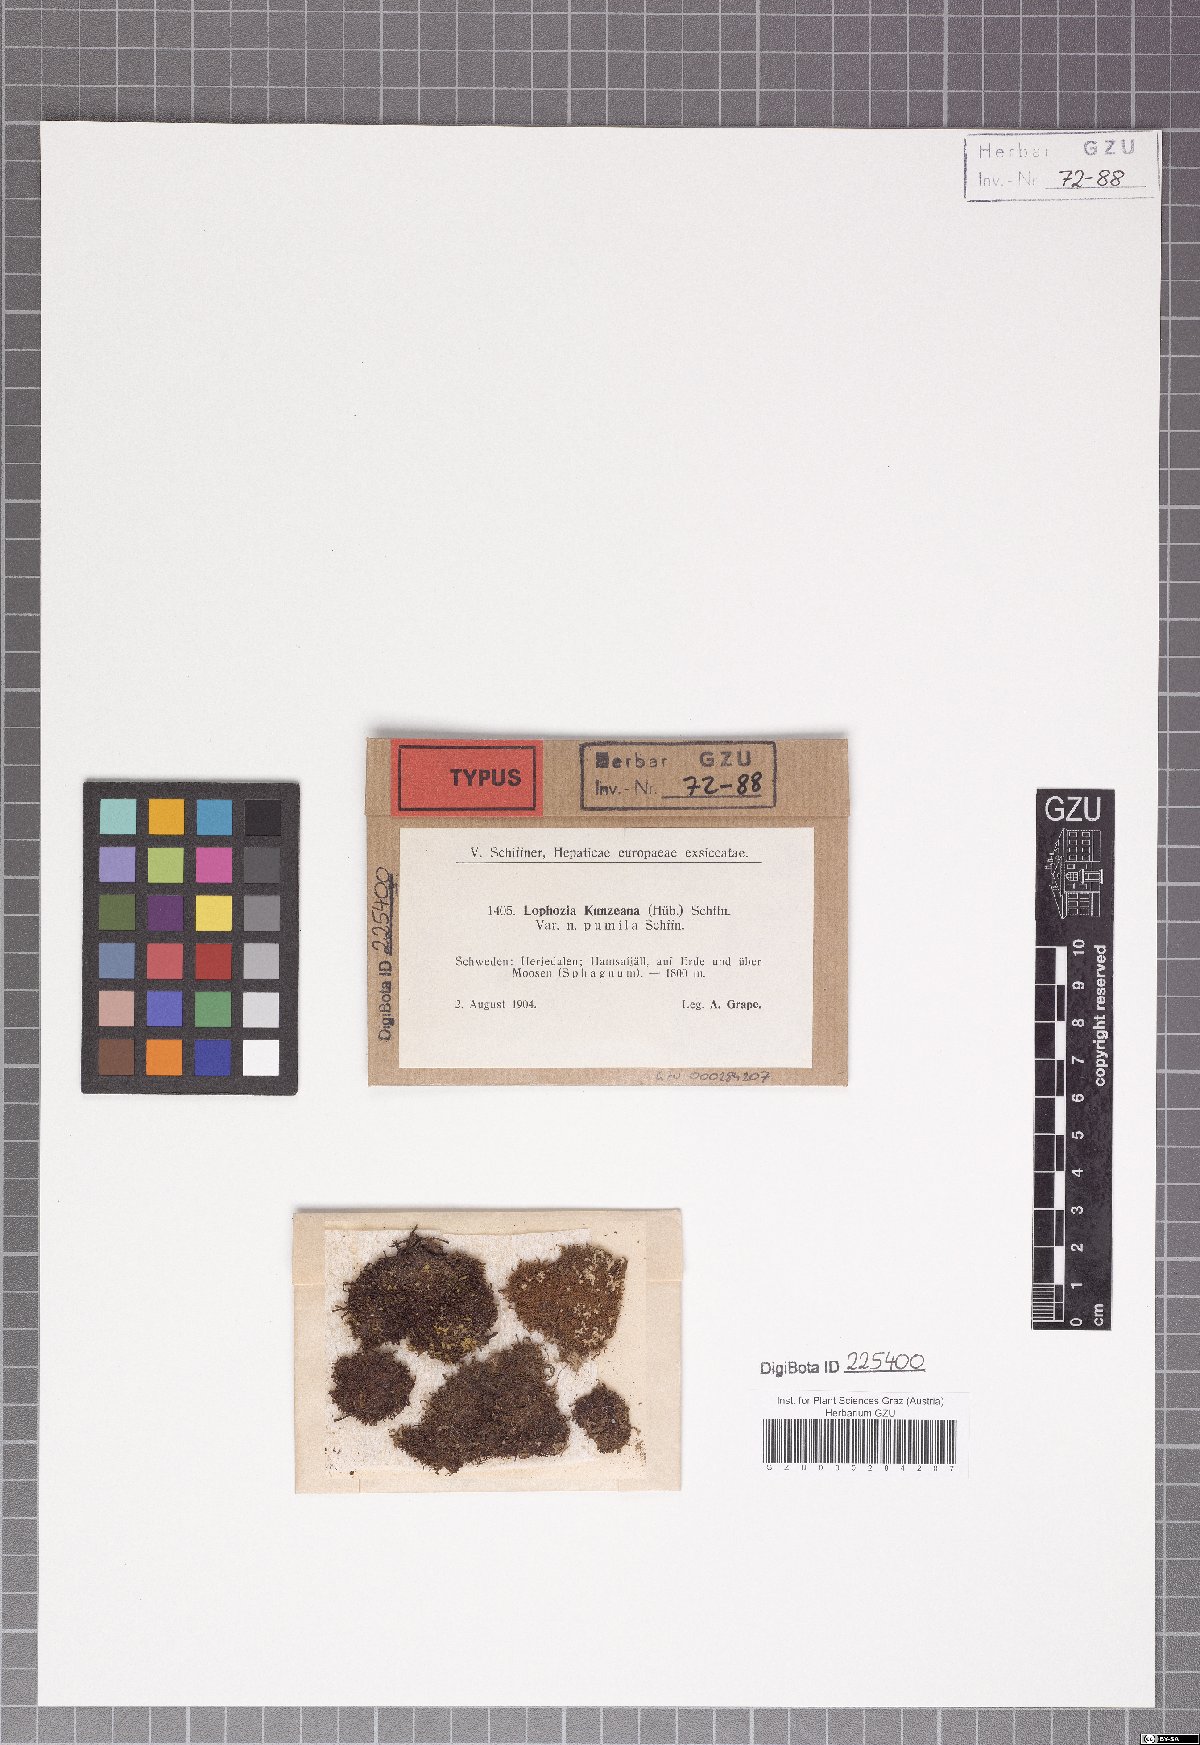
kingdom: Plantae
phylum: Marchantiophyta
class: Jungermanniopsida
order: Jungermanniales
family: Anastrophyllaceae
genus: Schljakovia
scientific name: Schljakovia kunzeana
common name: Kunze's pawwort
